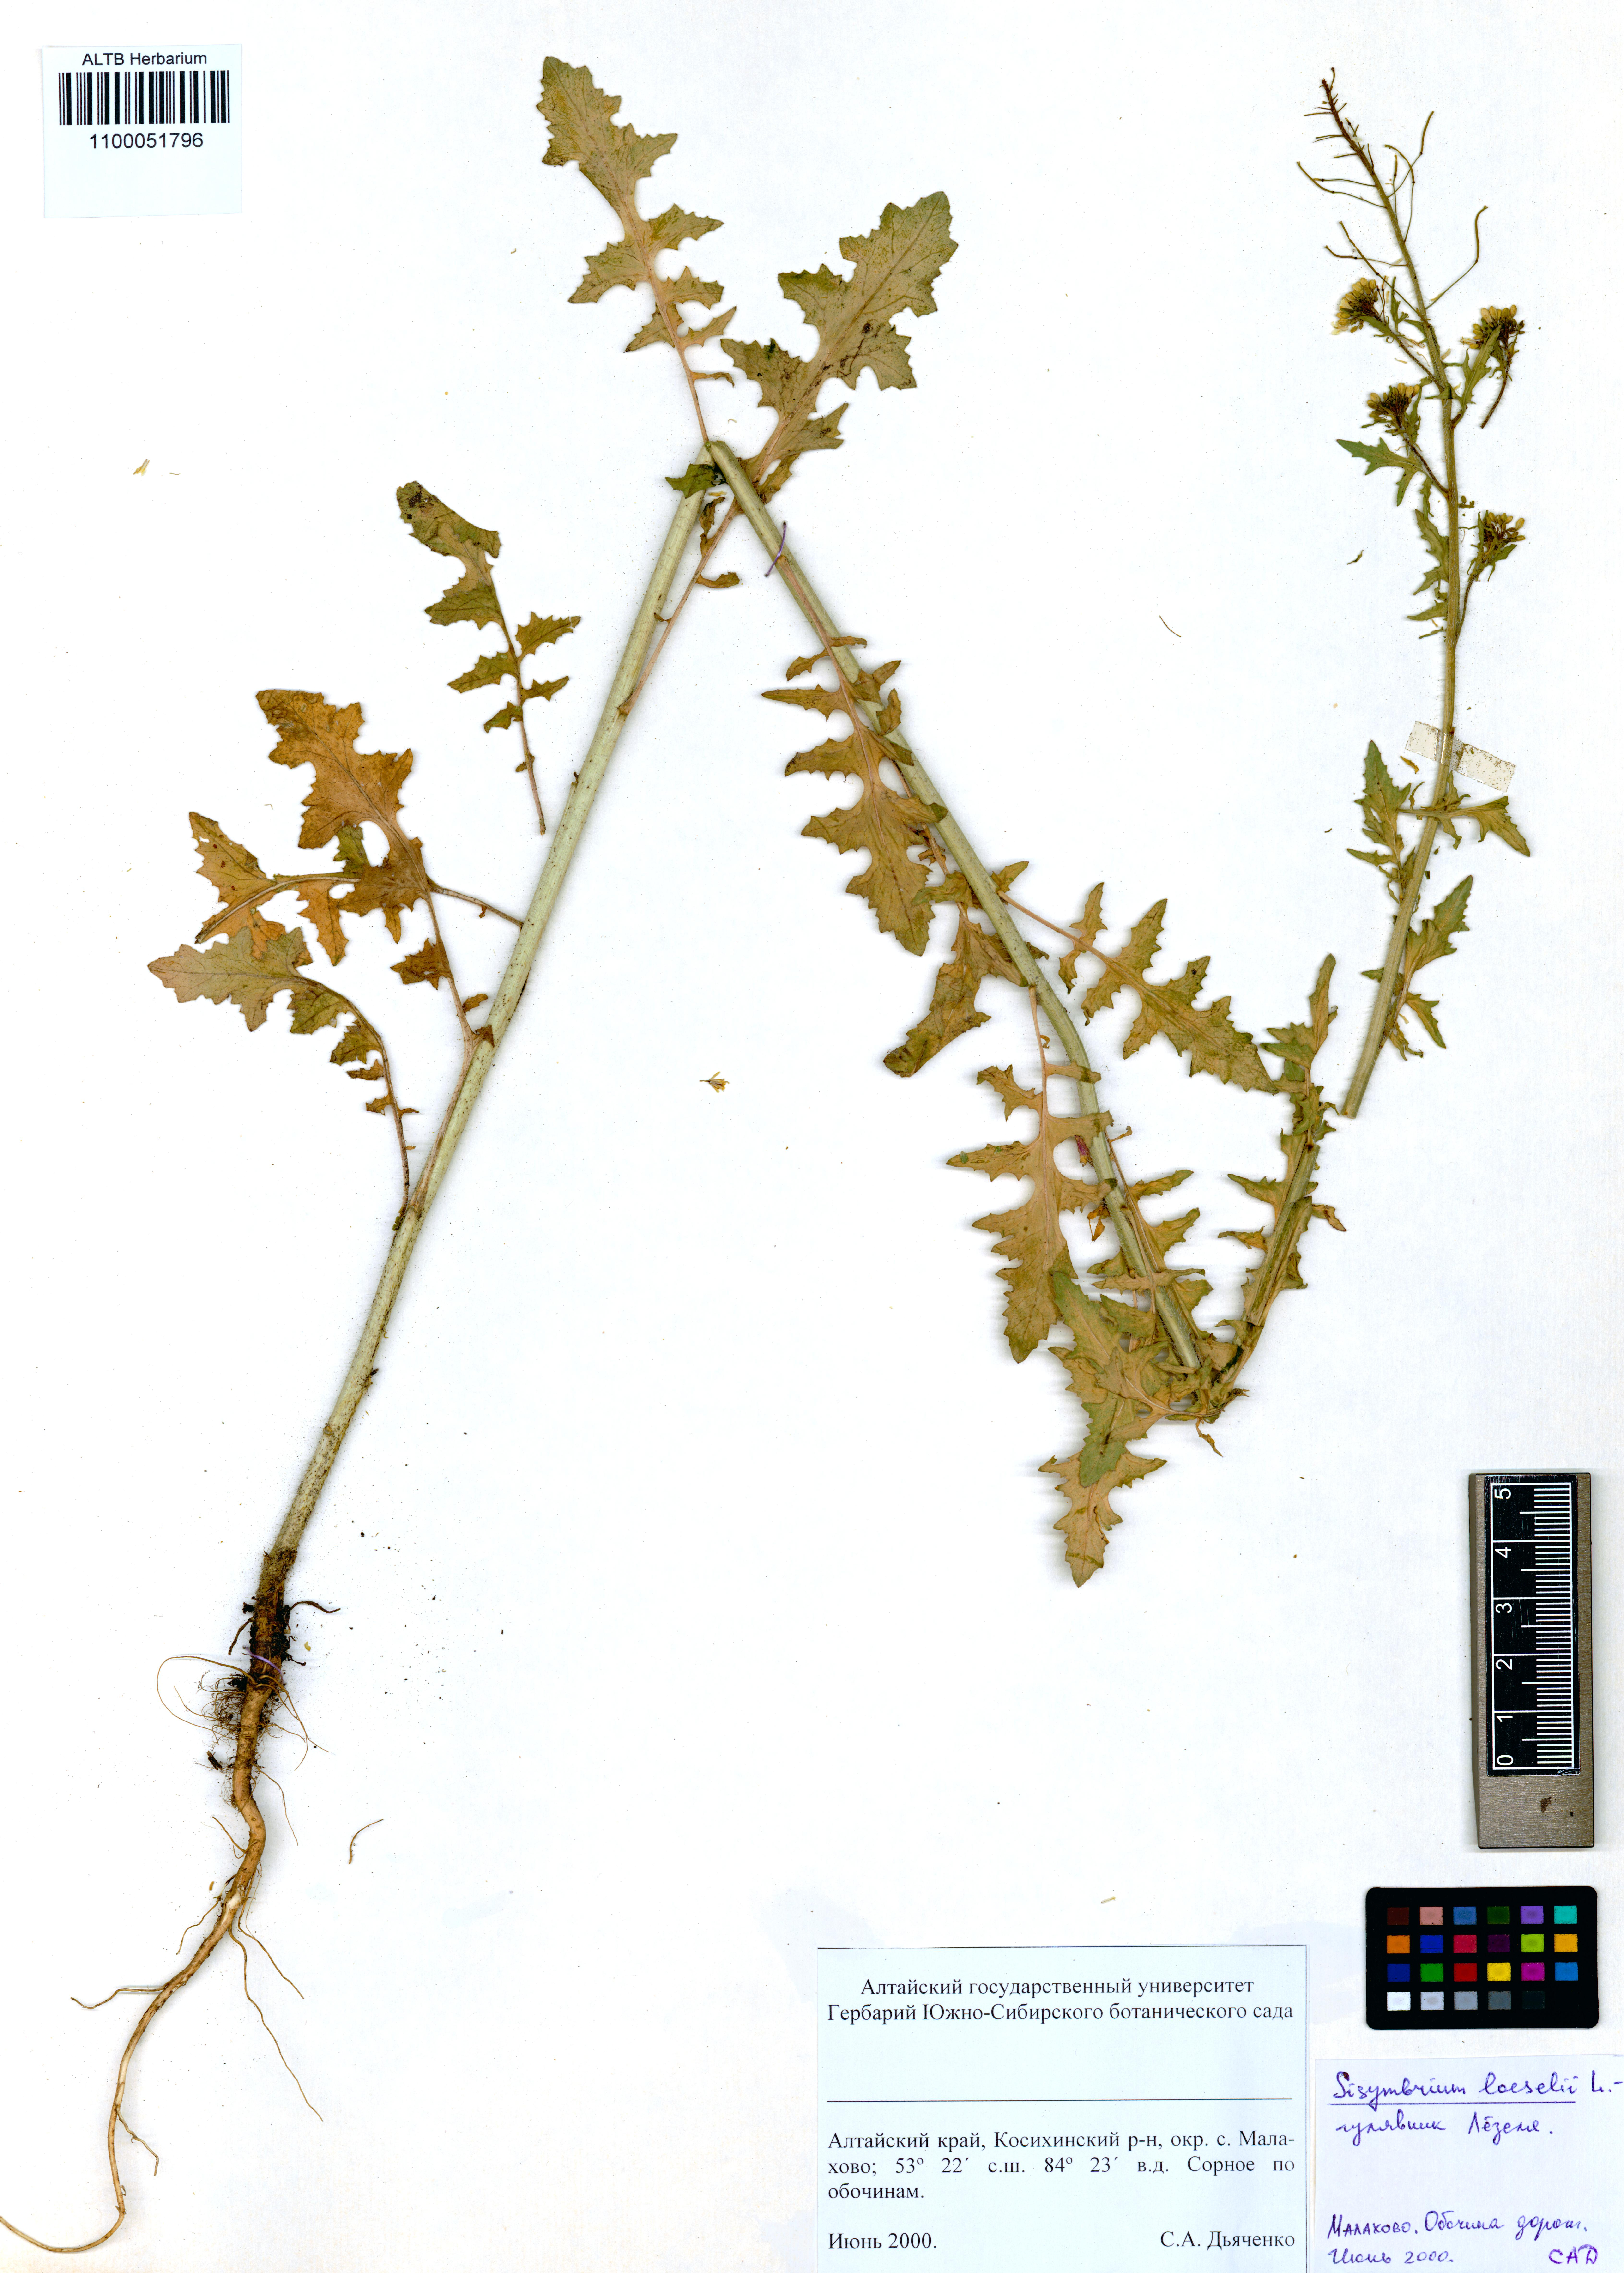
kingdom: Plantae
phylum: Tracheophyta
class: Magnoliopsida
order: Brassicales
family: Brassicaceae
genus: Sisymbrium
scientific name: Sisymbrium loeselii
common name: False london-rocket
